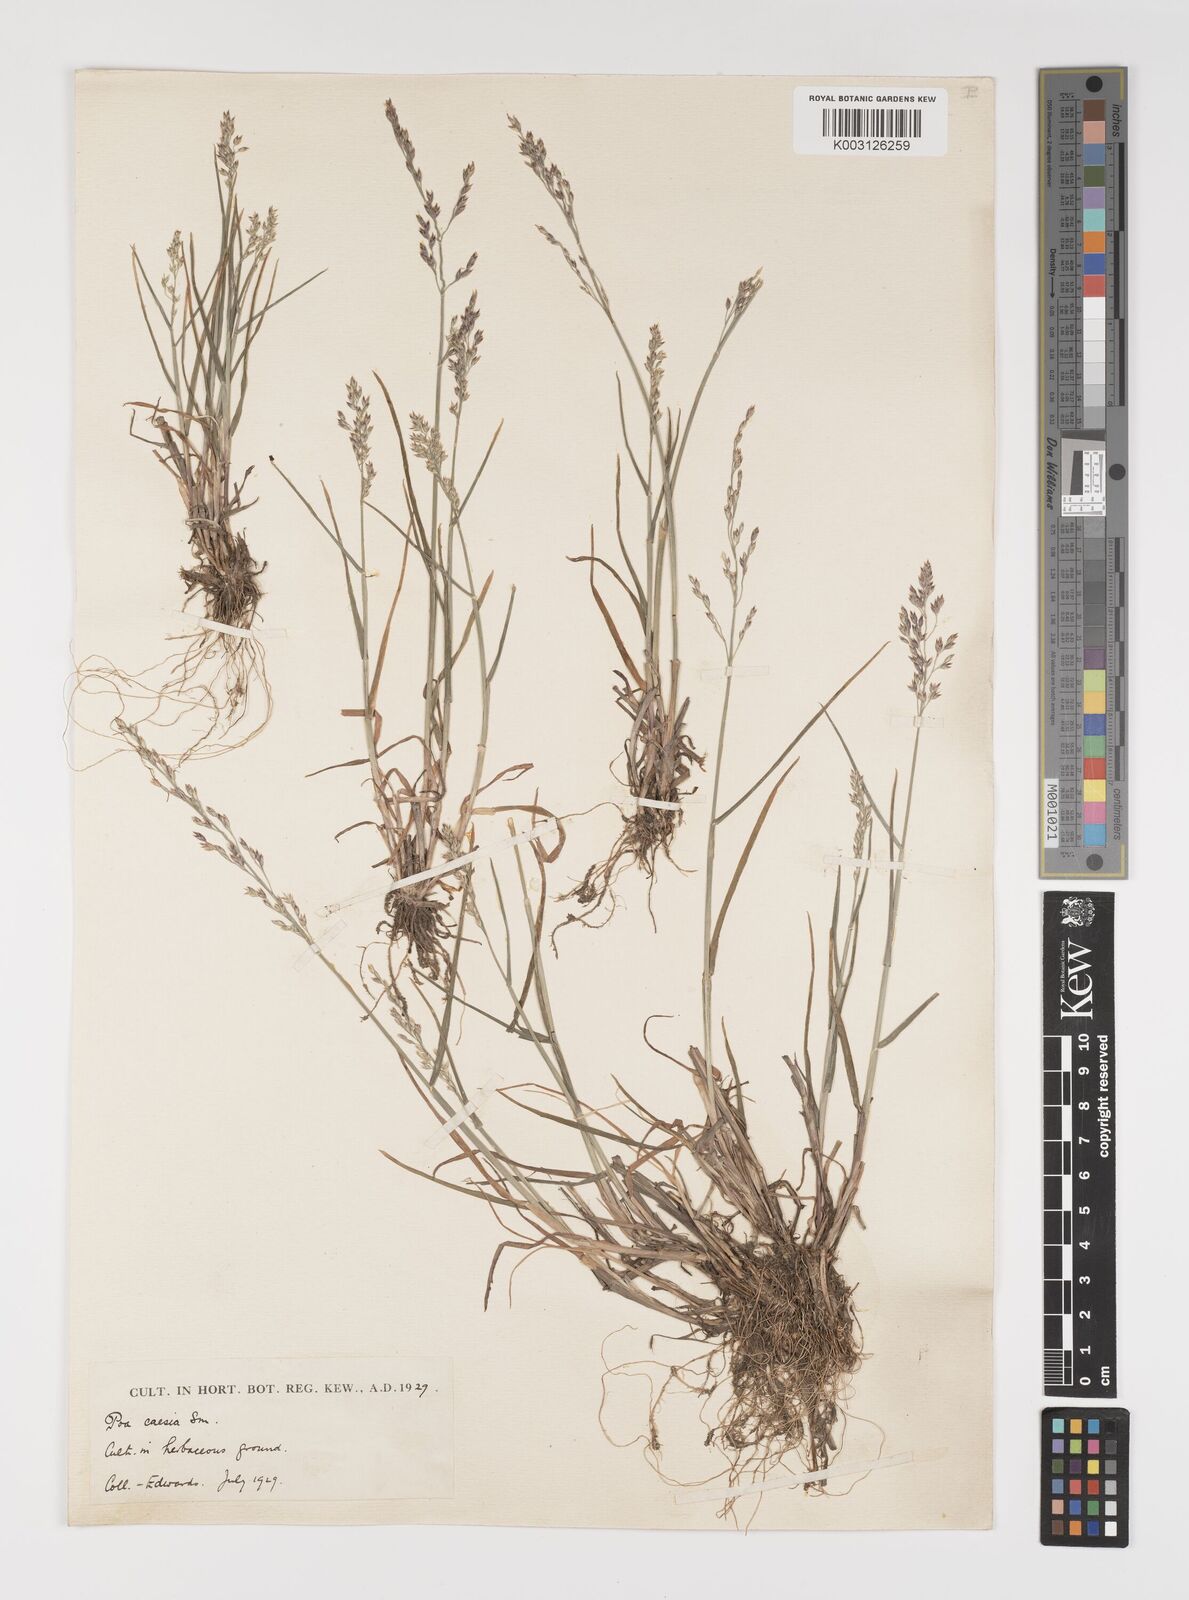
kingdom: Plantae
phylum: Tracheophyta
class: Liliopsida
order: Poales
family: Poaceae
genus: Poa
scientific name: Poa glauca
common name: Glaucous bluegrass
